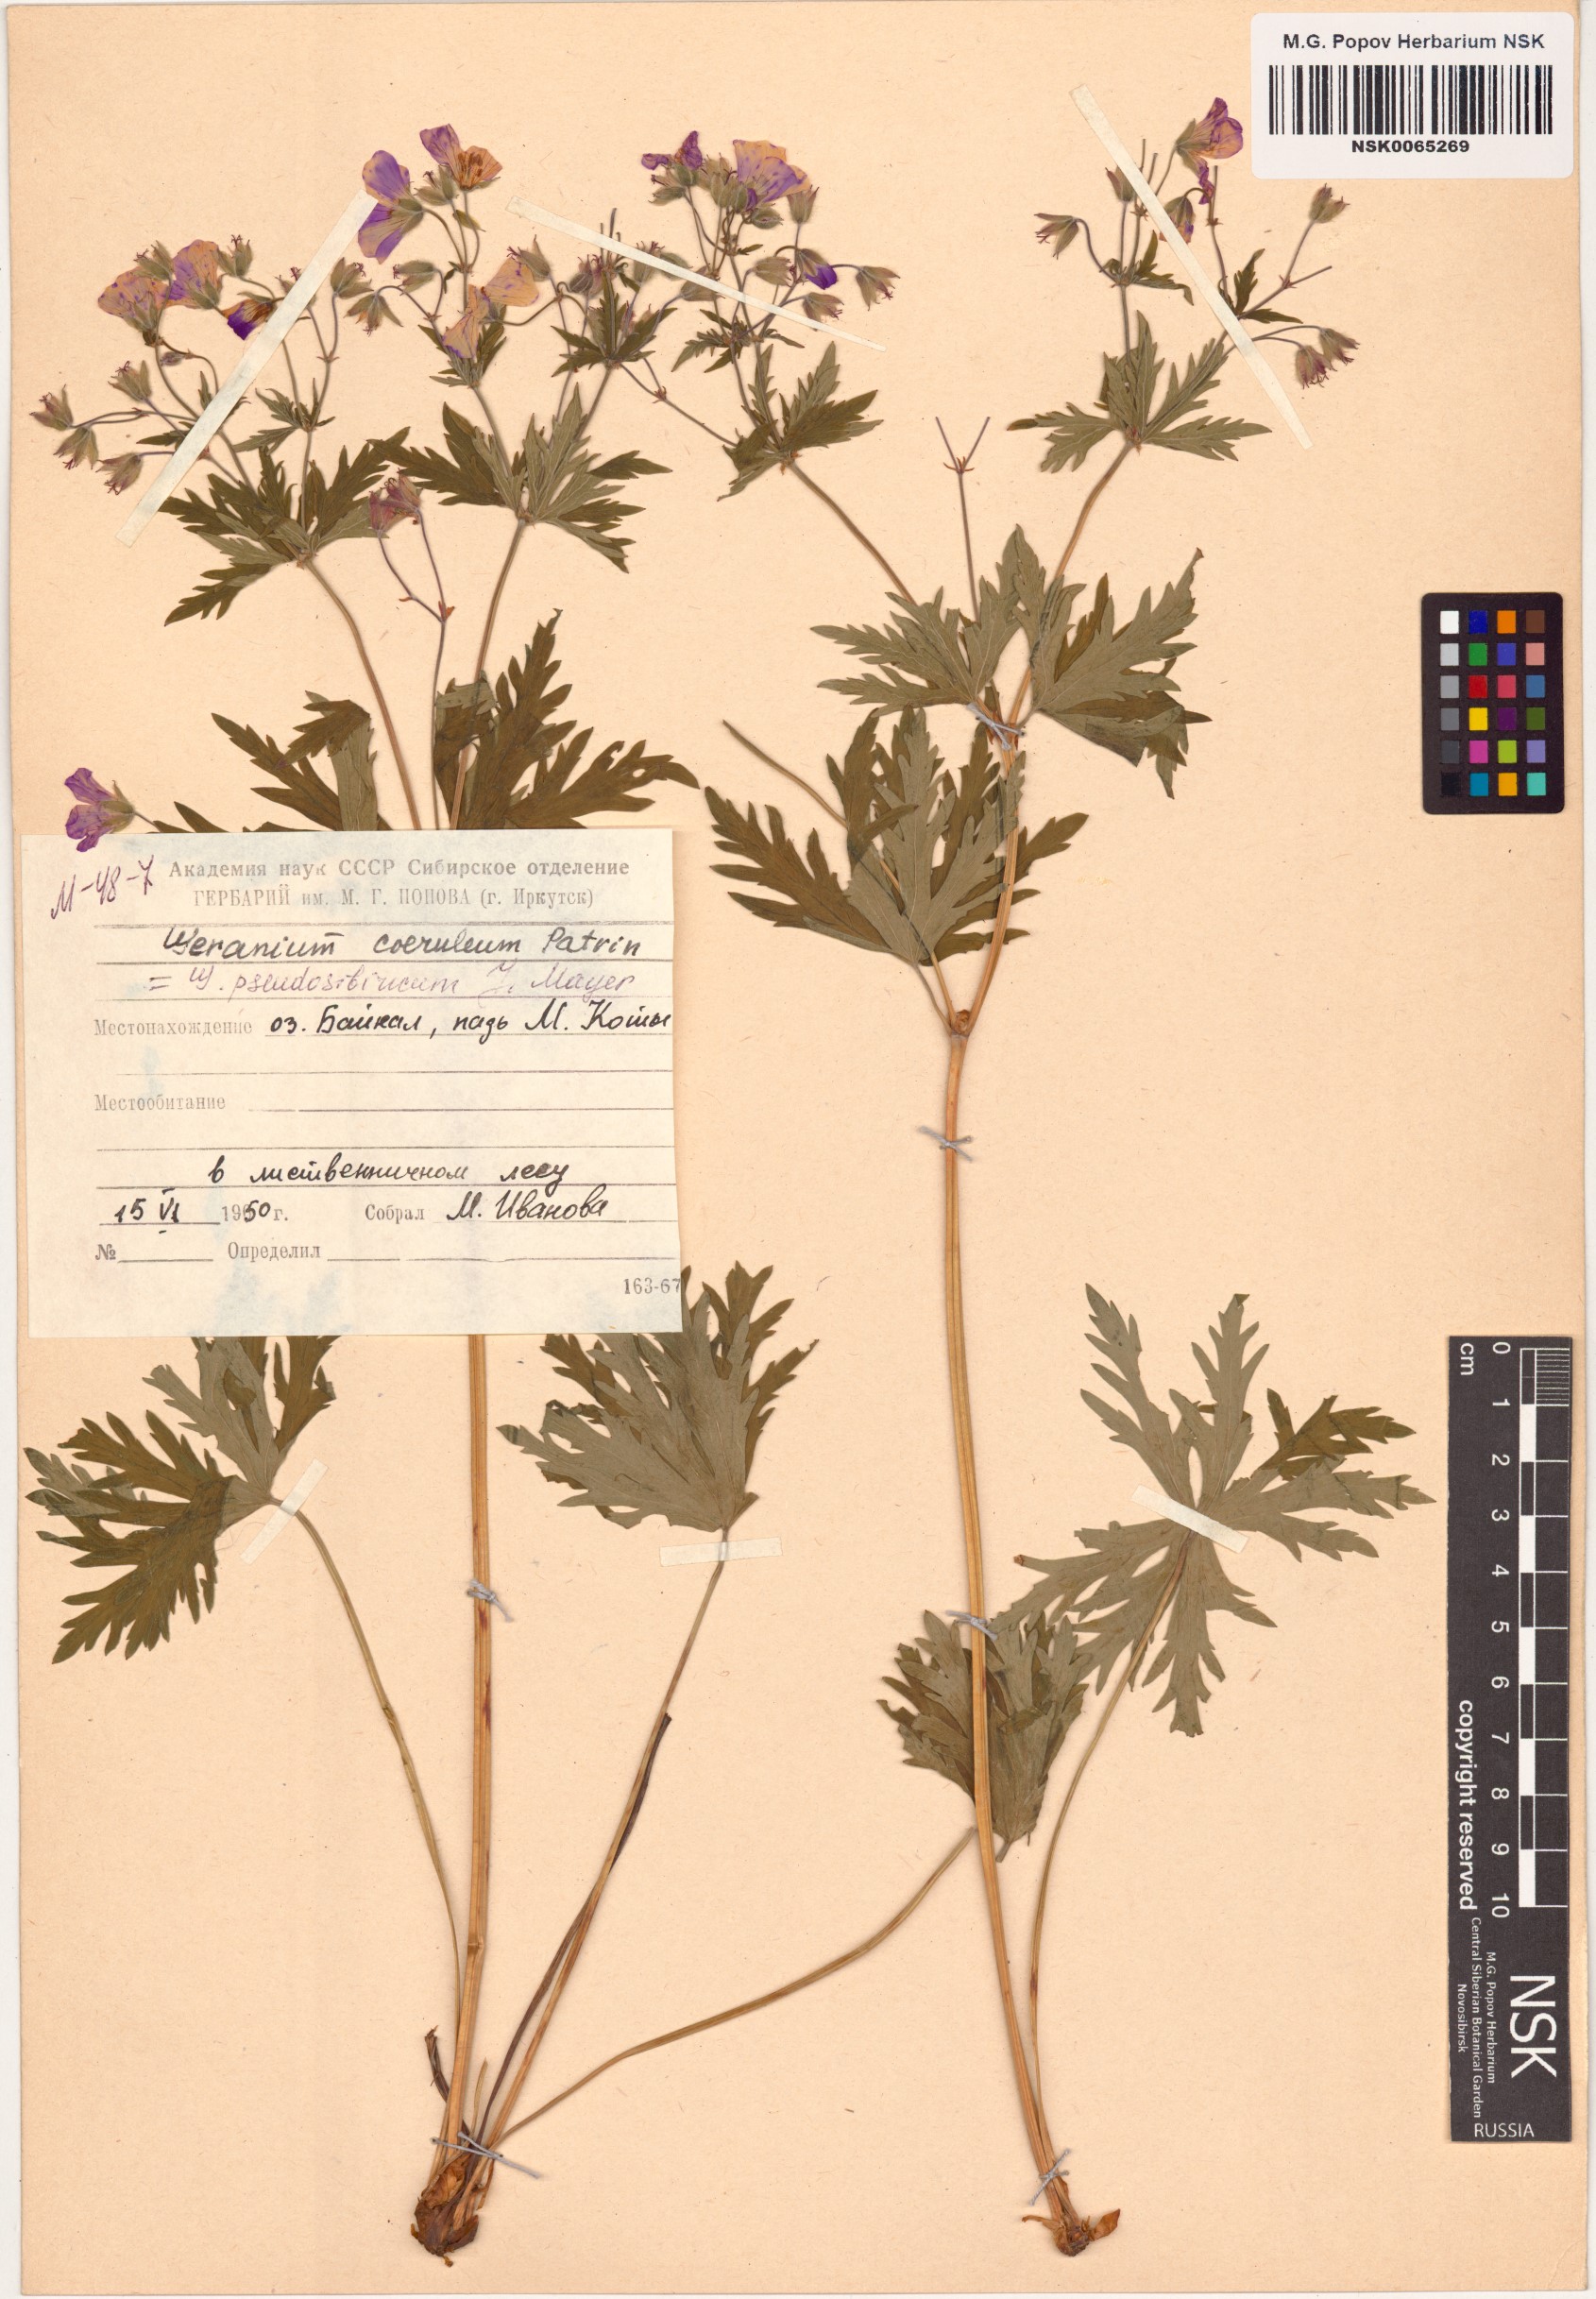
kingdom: Plantae
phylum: Tracheophyta
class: Magnoliopsida
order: Geraniales
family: Geraniaceae
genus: Geranium
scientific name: Geranium pseudosibiricum
